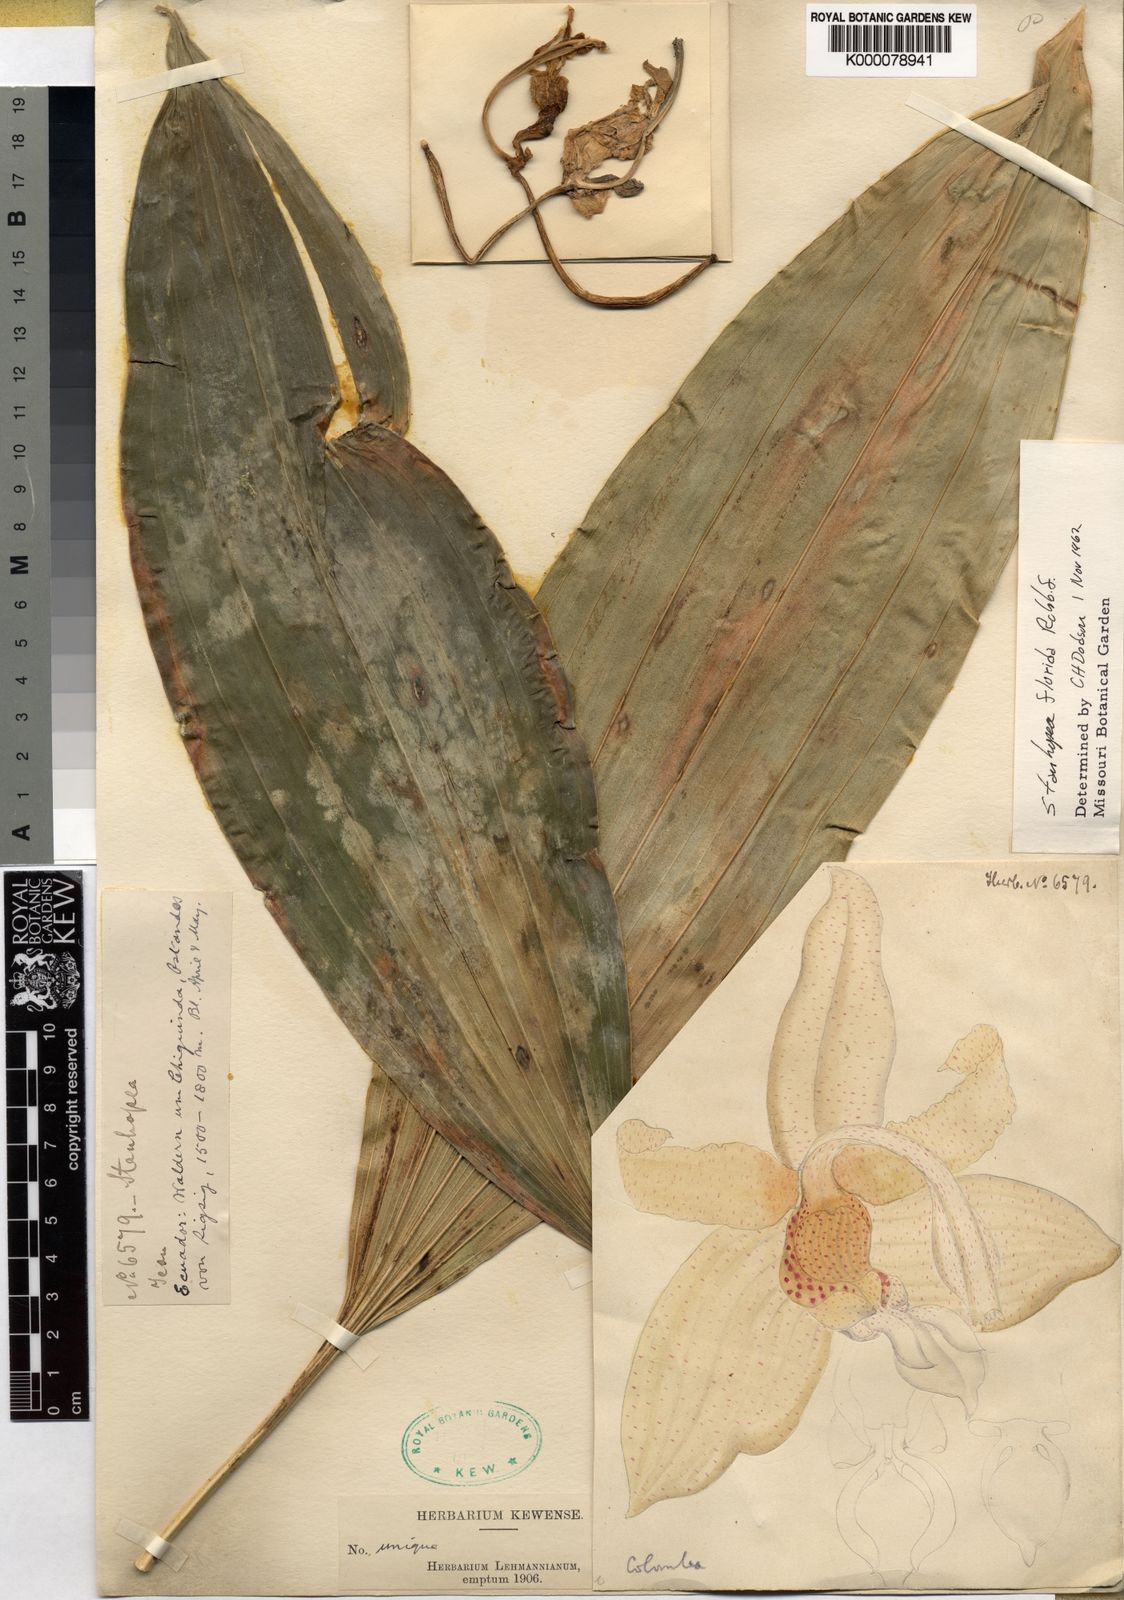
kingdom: Plantae
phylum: Tracheophyta
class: Liliopsida
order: Asparagales
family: Orchidaceae
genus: Stanhopea
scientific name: Stanhopea florida
